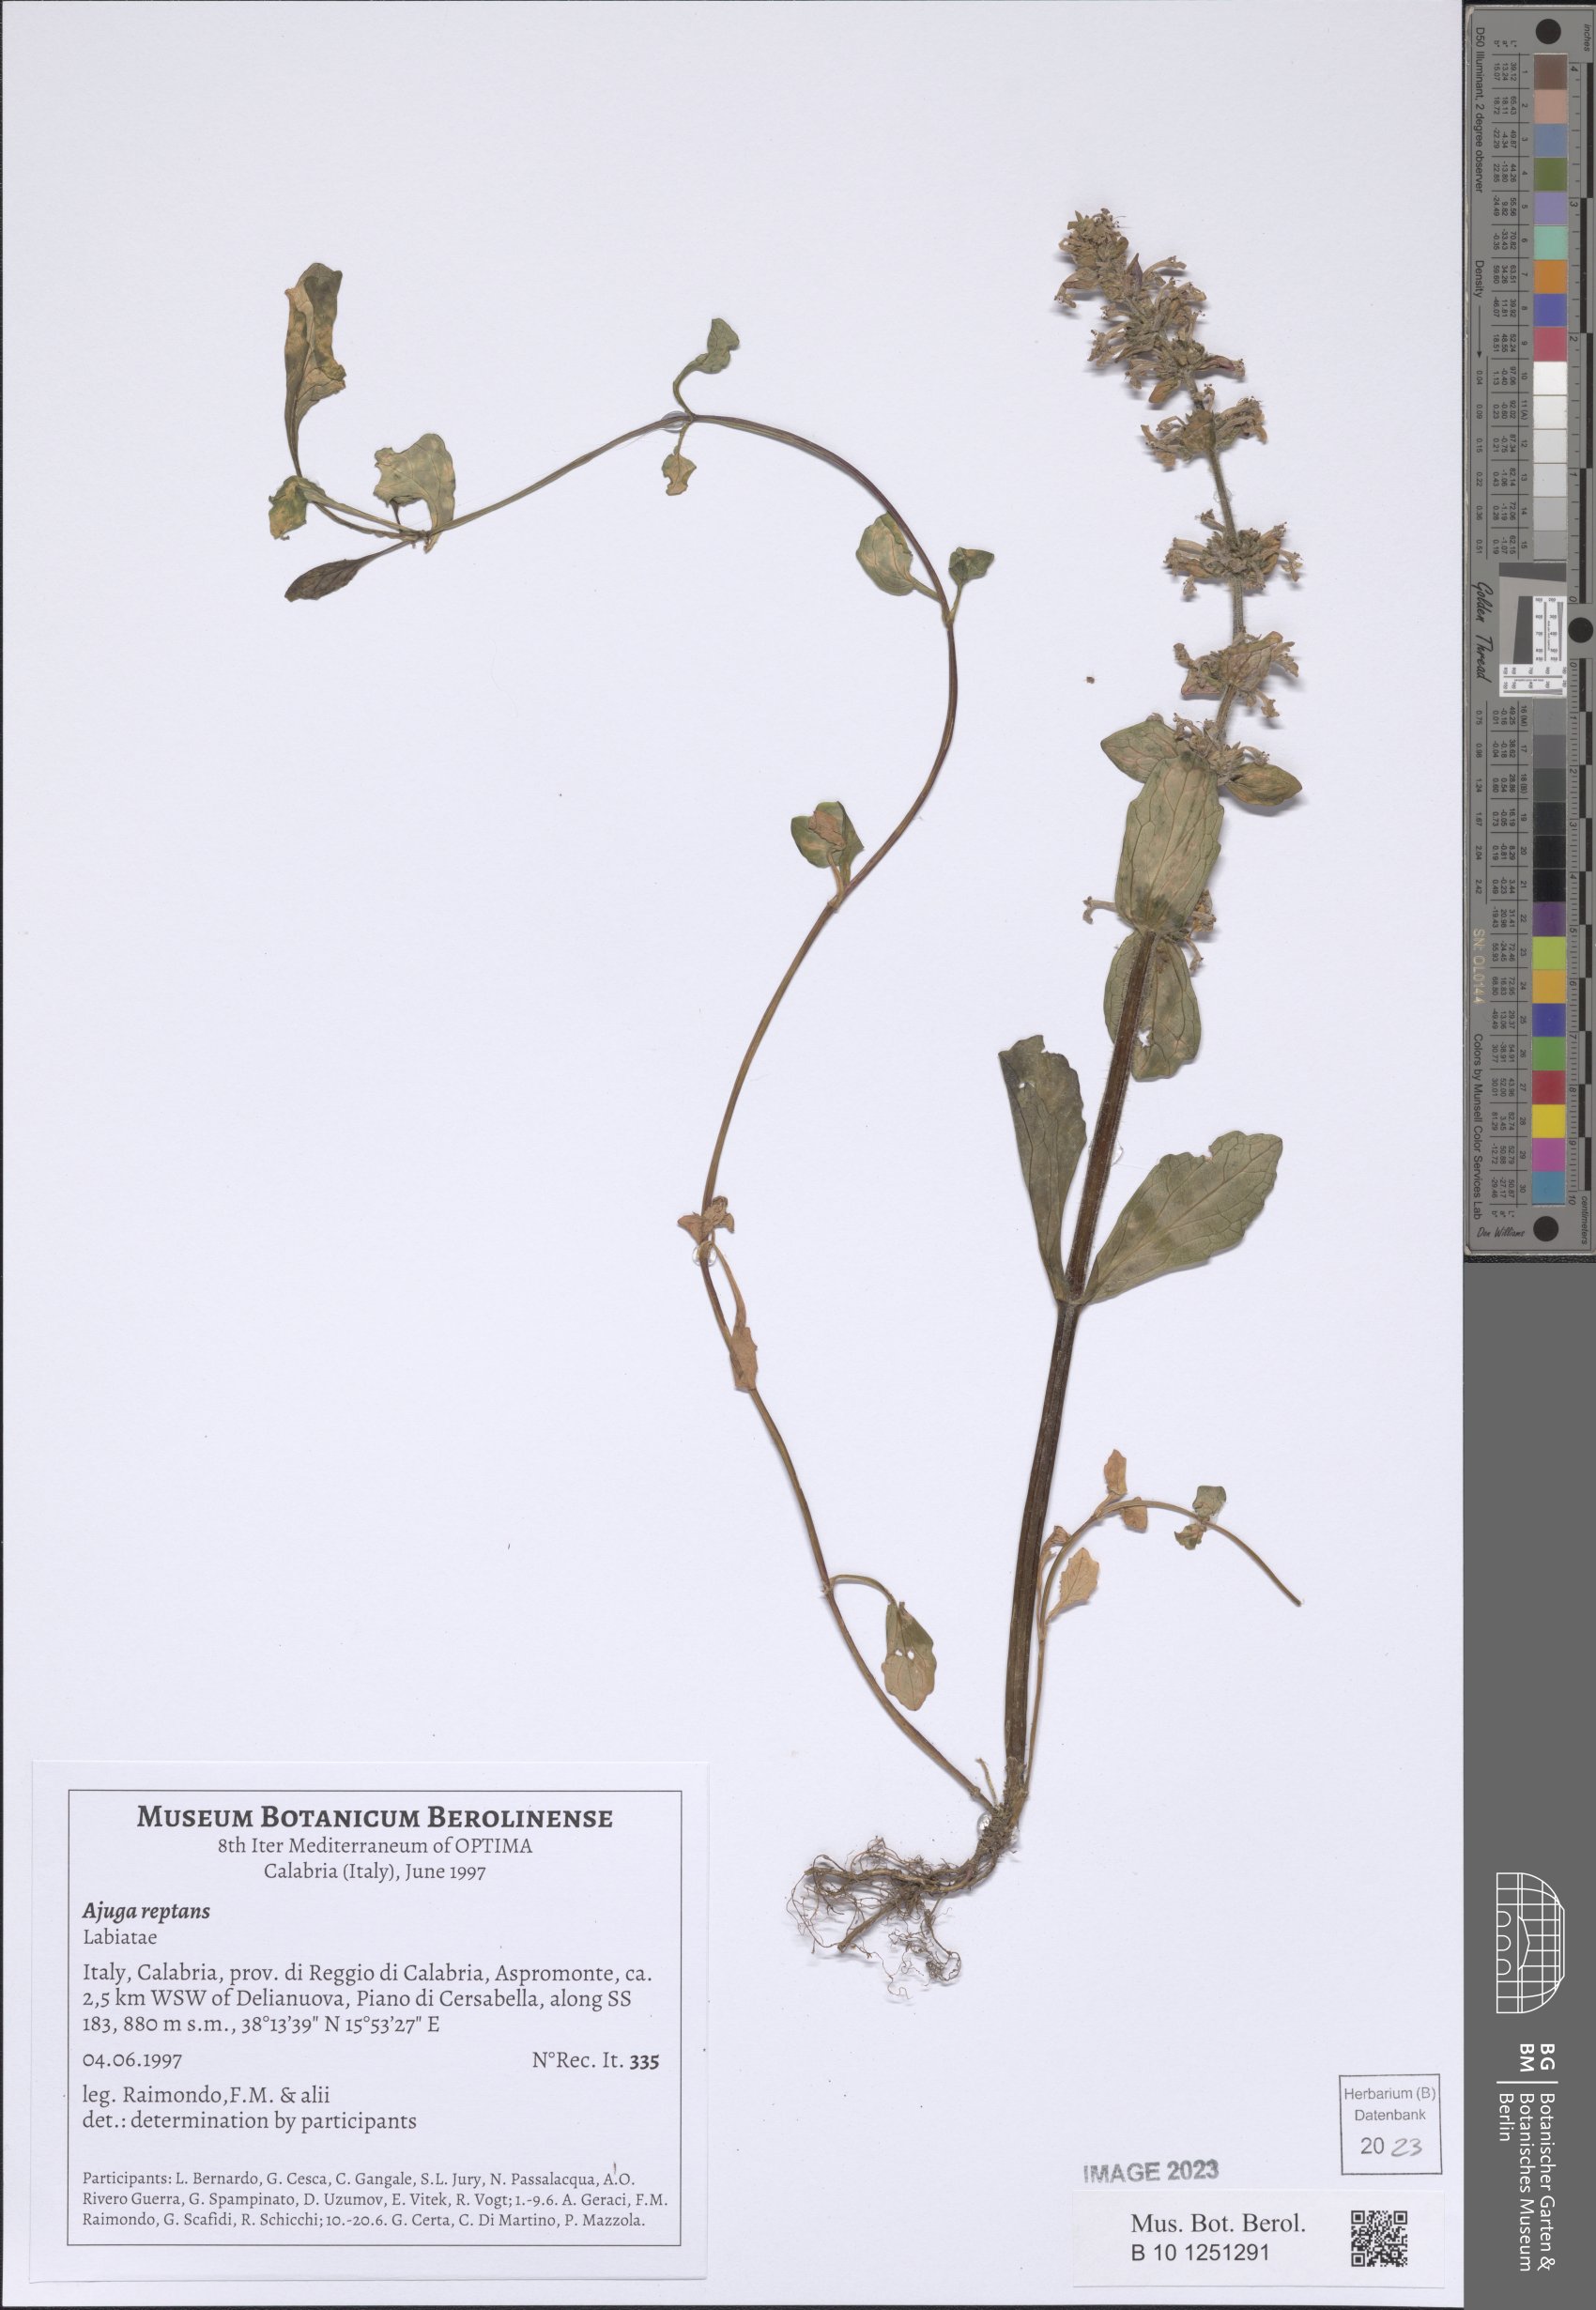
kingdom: Plantae
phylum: Tracheophyta
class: Magnoliopsida
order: Lamiales
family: Lamiaceae
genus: Ajuga
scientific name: Ajuga reptans
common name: Bugle
